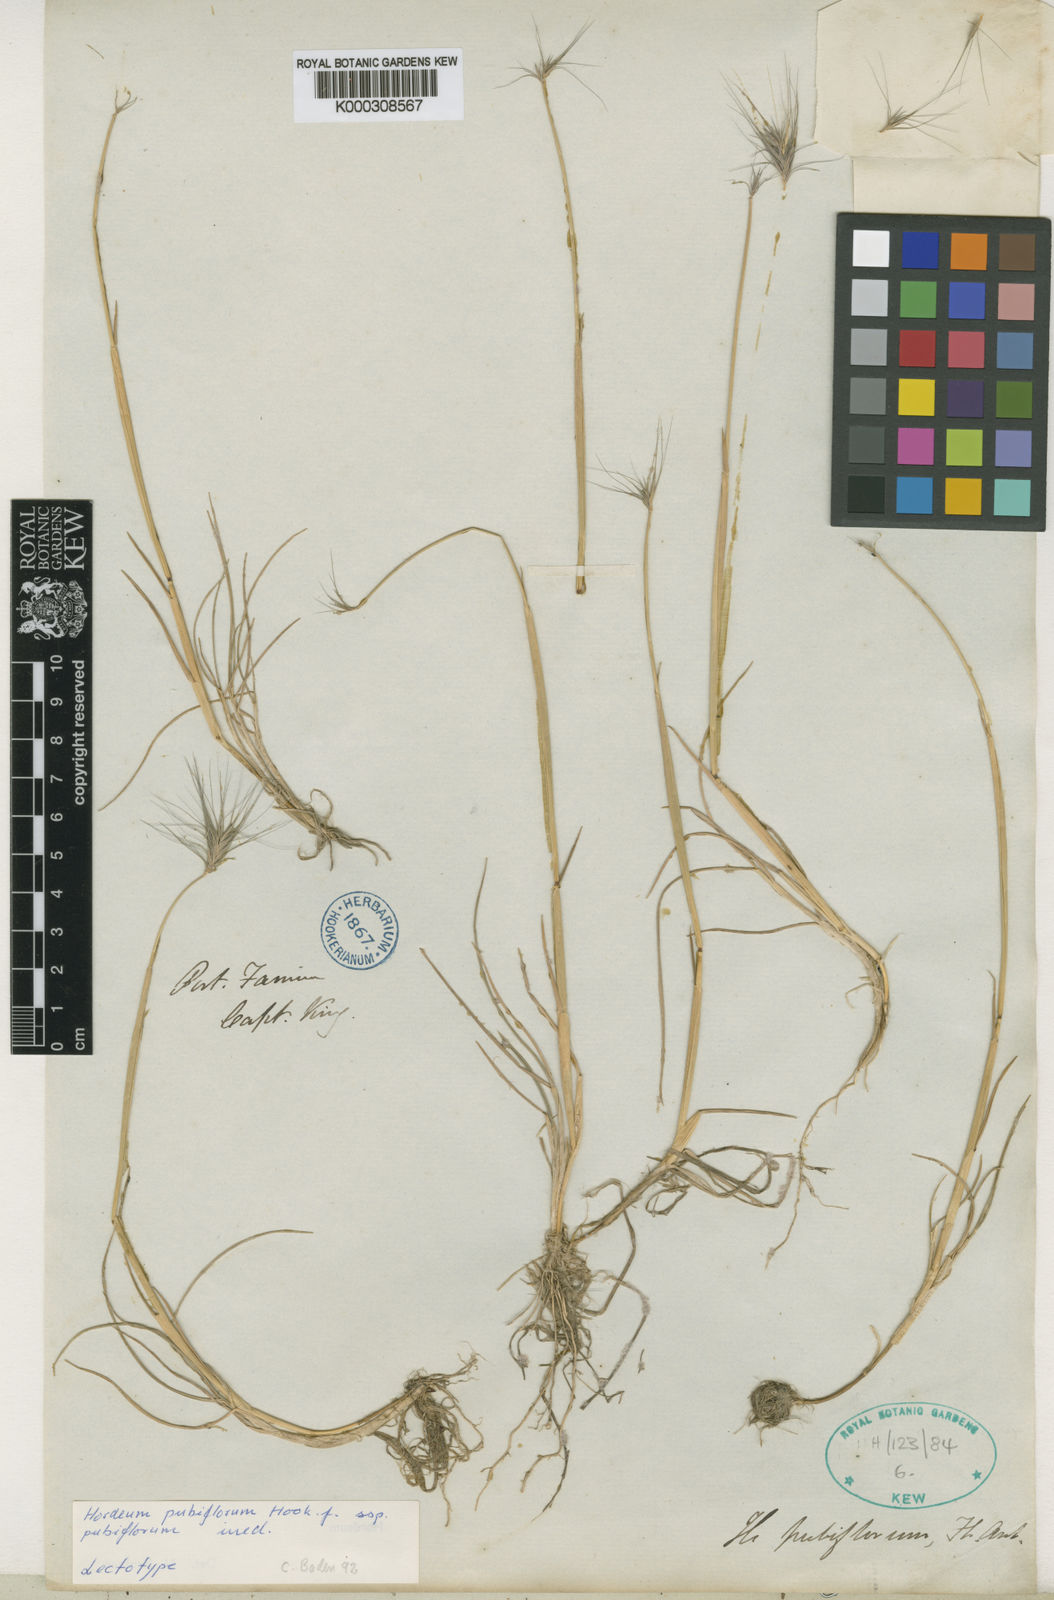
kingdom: Plantae
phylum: Tracheophyta
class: Liliopsida
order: Poales
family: Poaceae
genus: Hordeum
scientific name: Hordeum pubiflorum
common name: Antarctic barley
